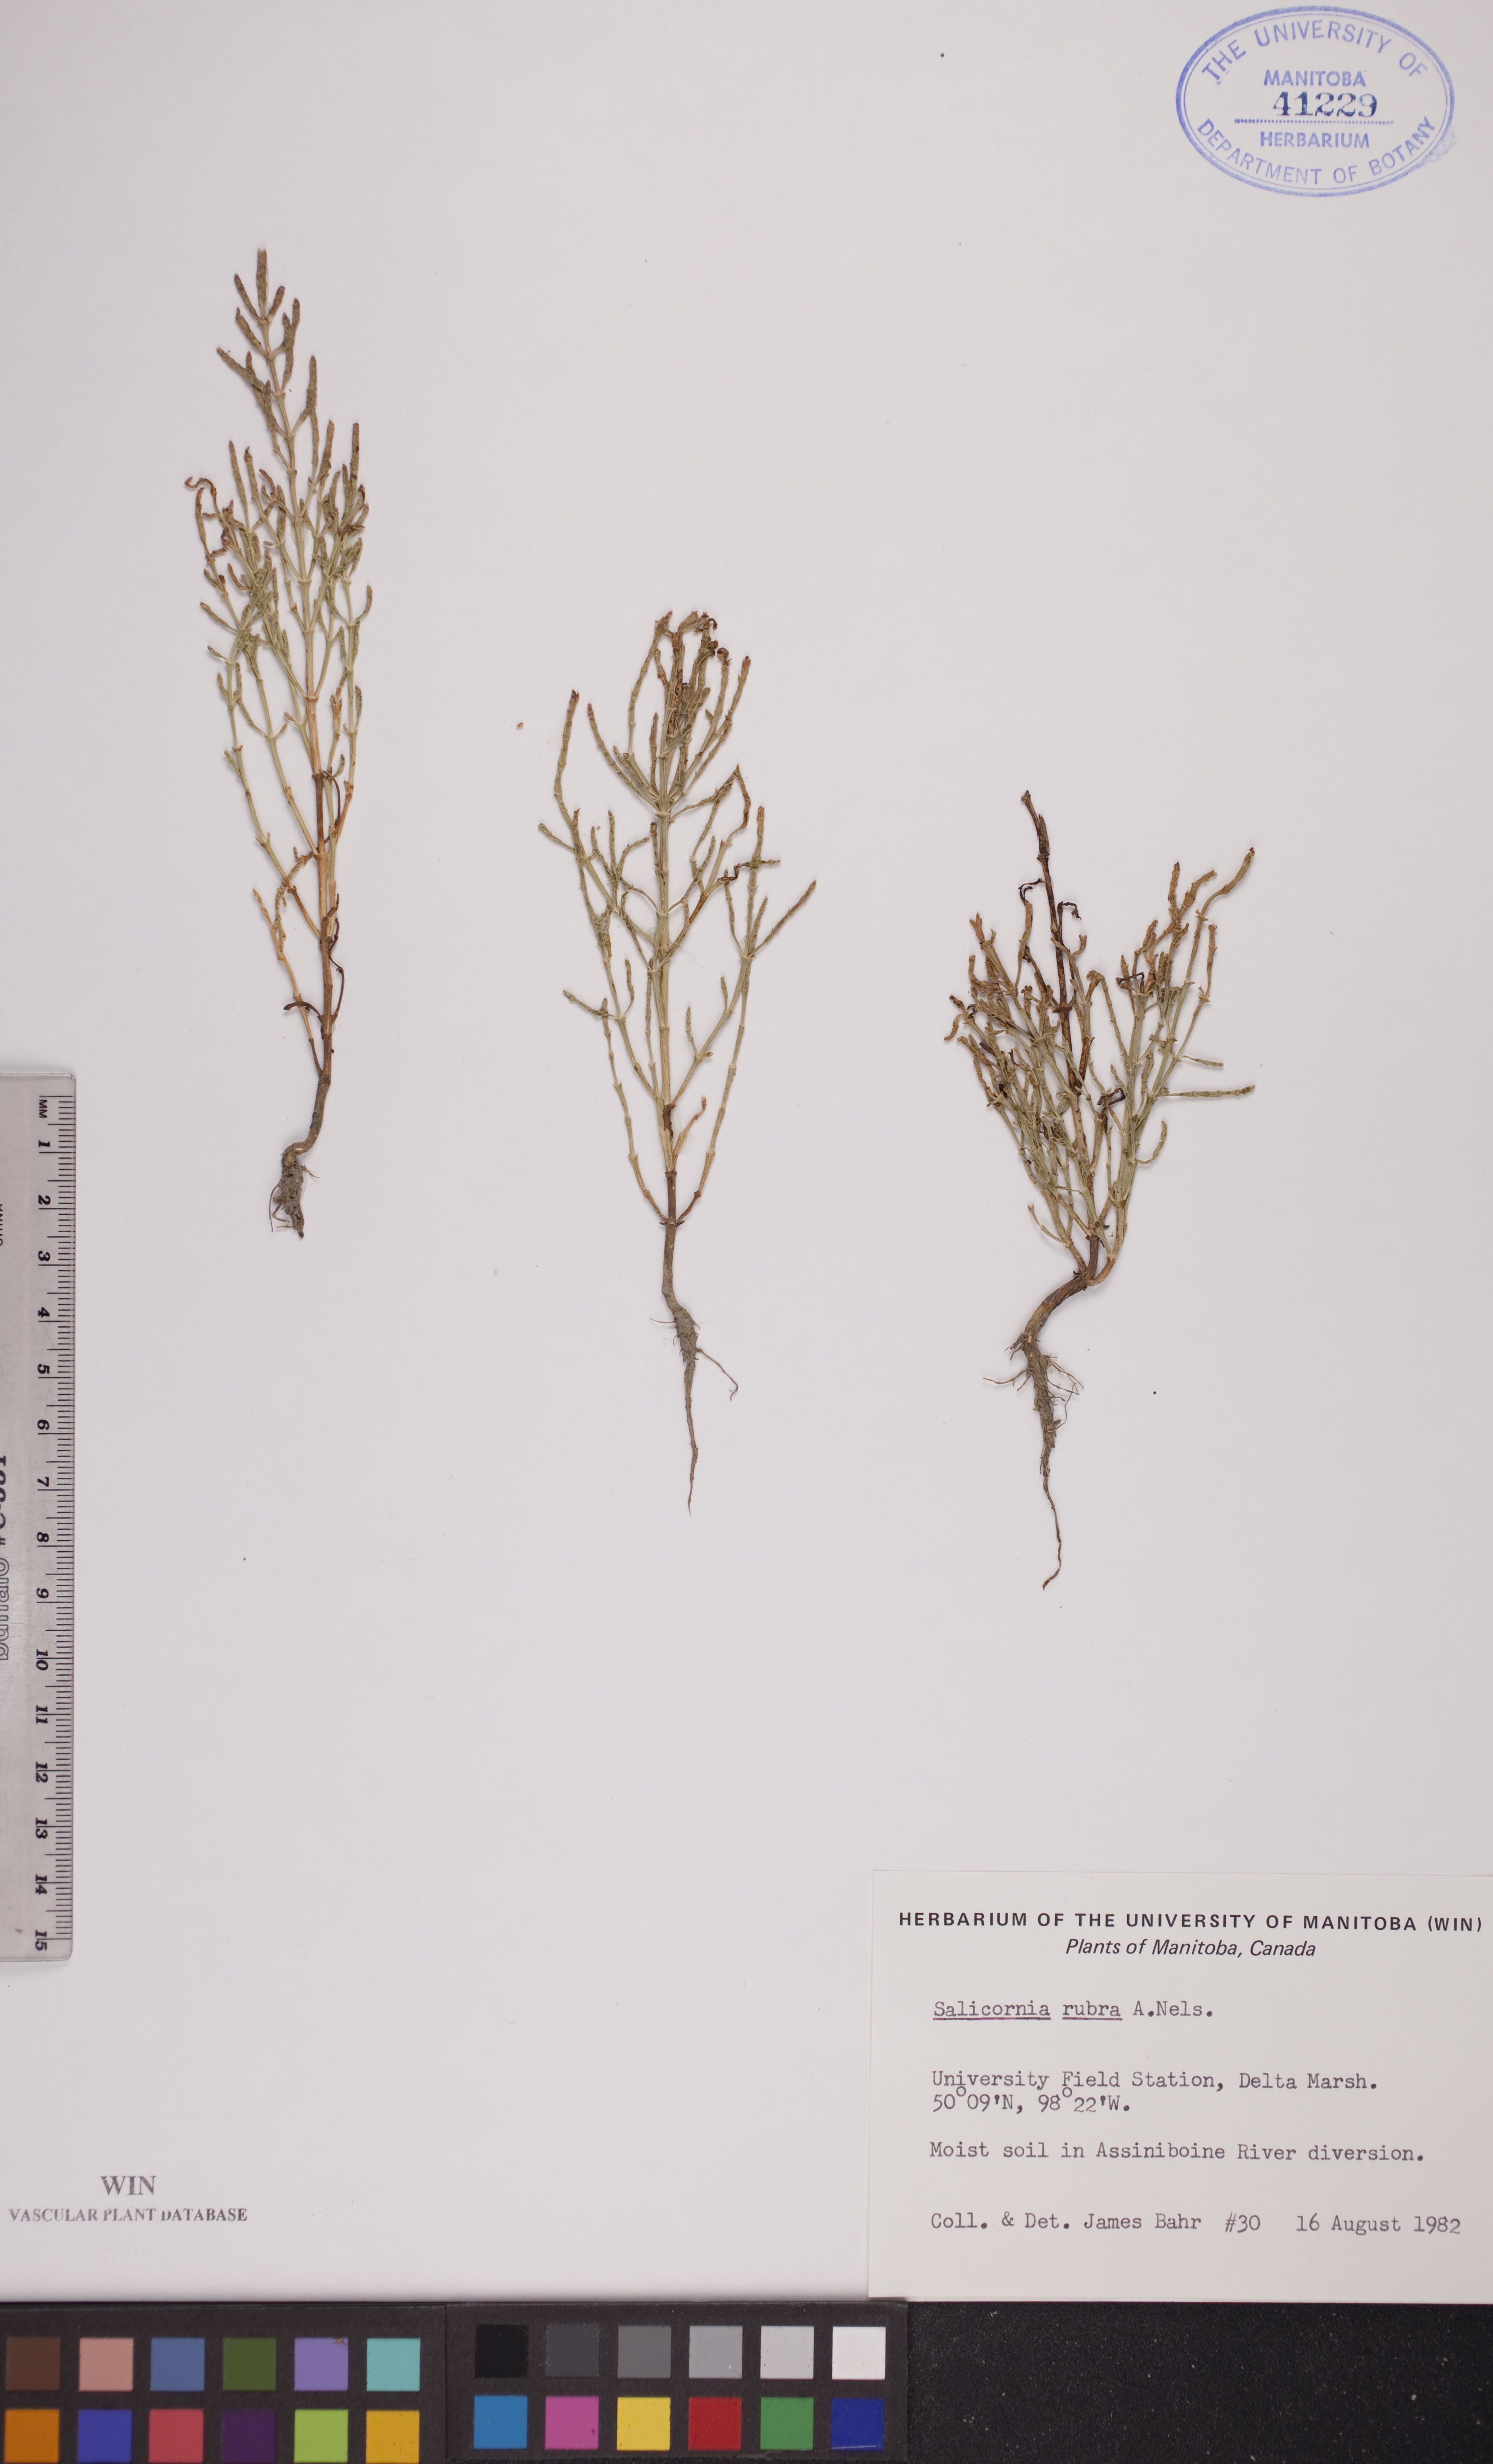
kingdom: Plantae
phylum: Tracheophyta
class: Magnoliopsida
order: Caryophyllales
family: Amaranthaceae
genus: Salicornia
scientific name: Salicornia rubra
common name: Red glasswort
